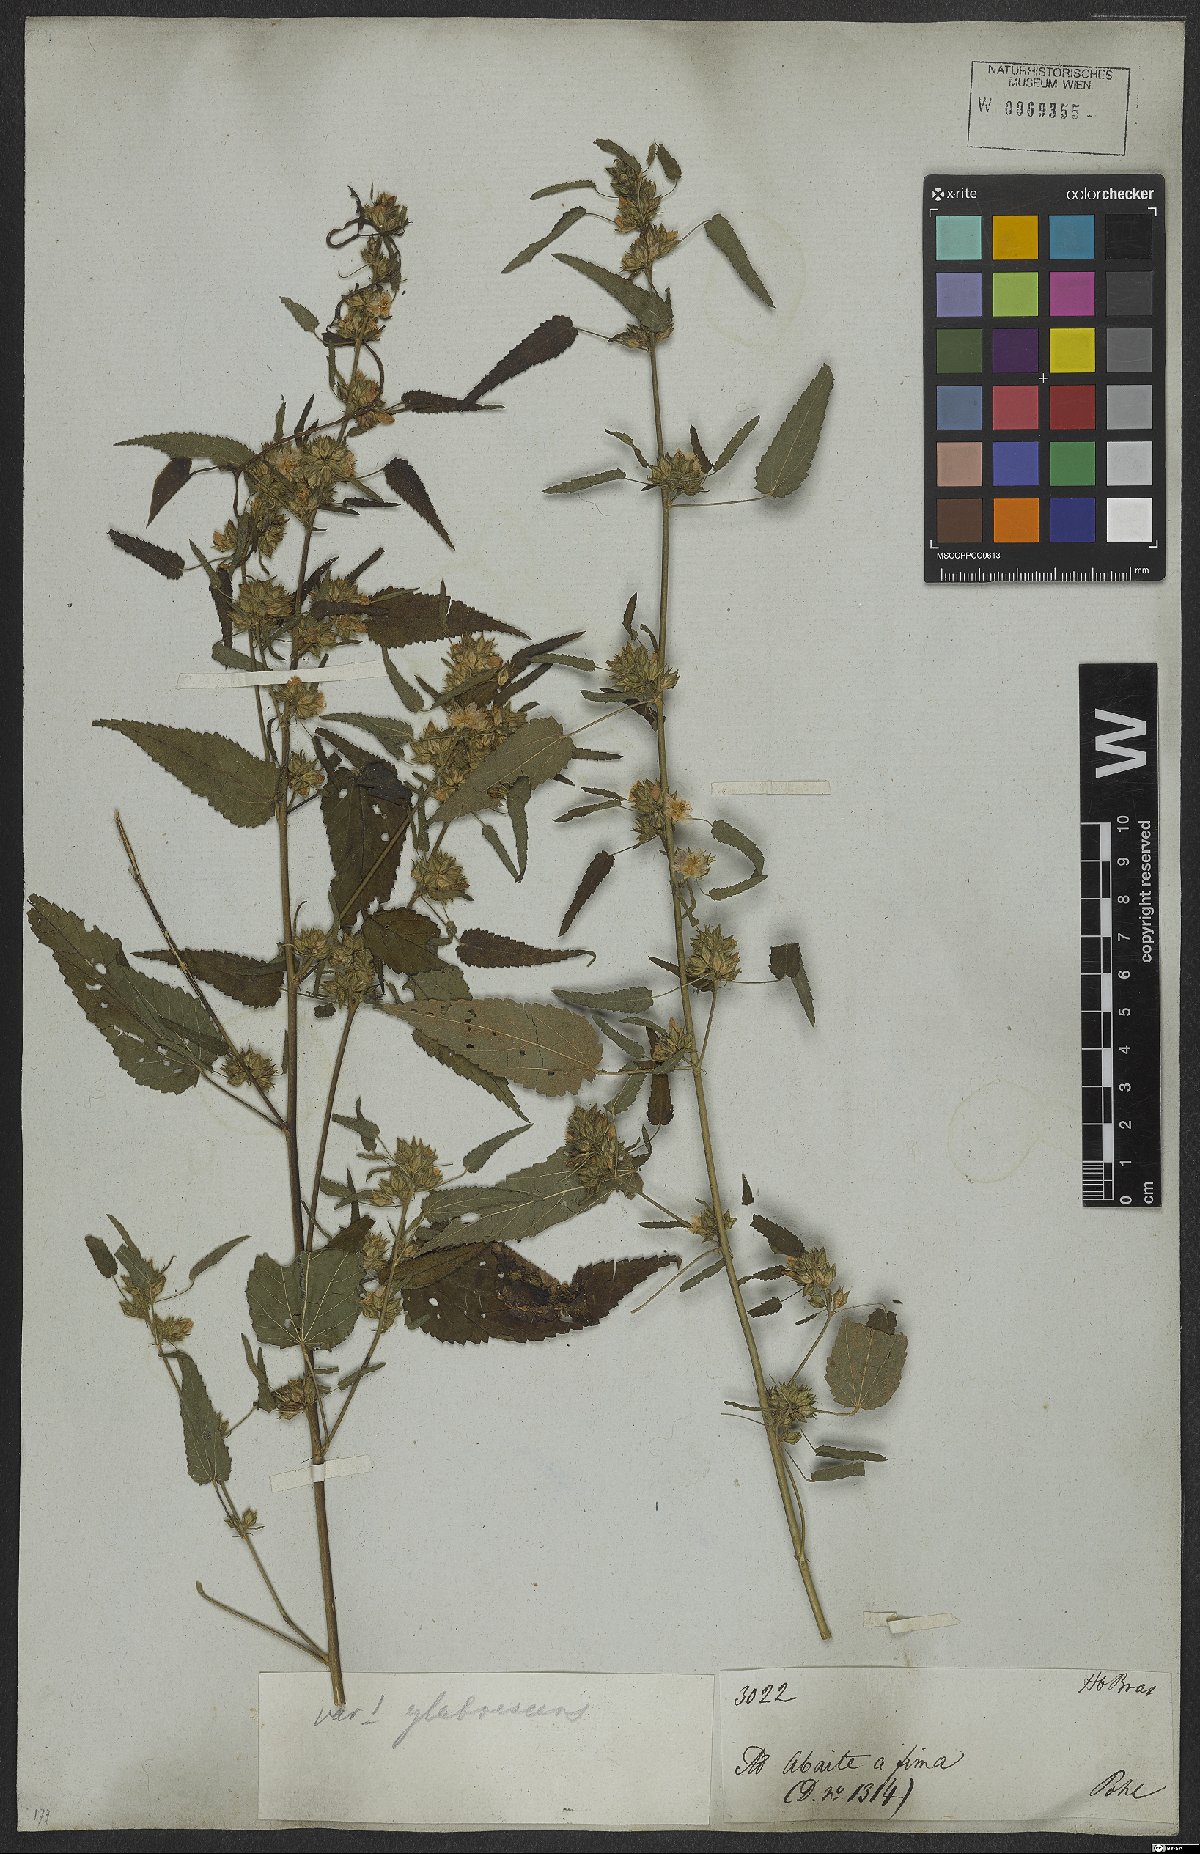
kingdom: Plantae
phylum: Tracheophyta
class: Magnoliopsida
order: Malvales
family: Malvaceae
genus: Sida
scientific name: Sida caudata
